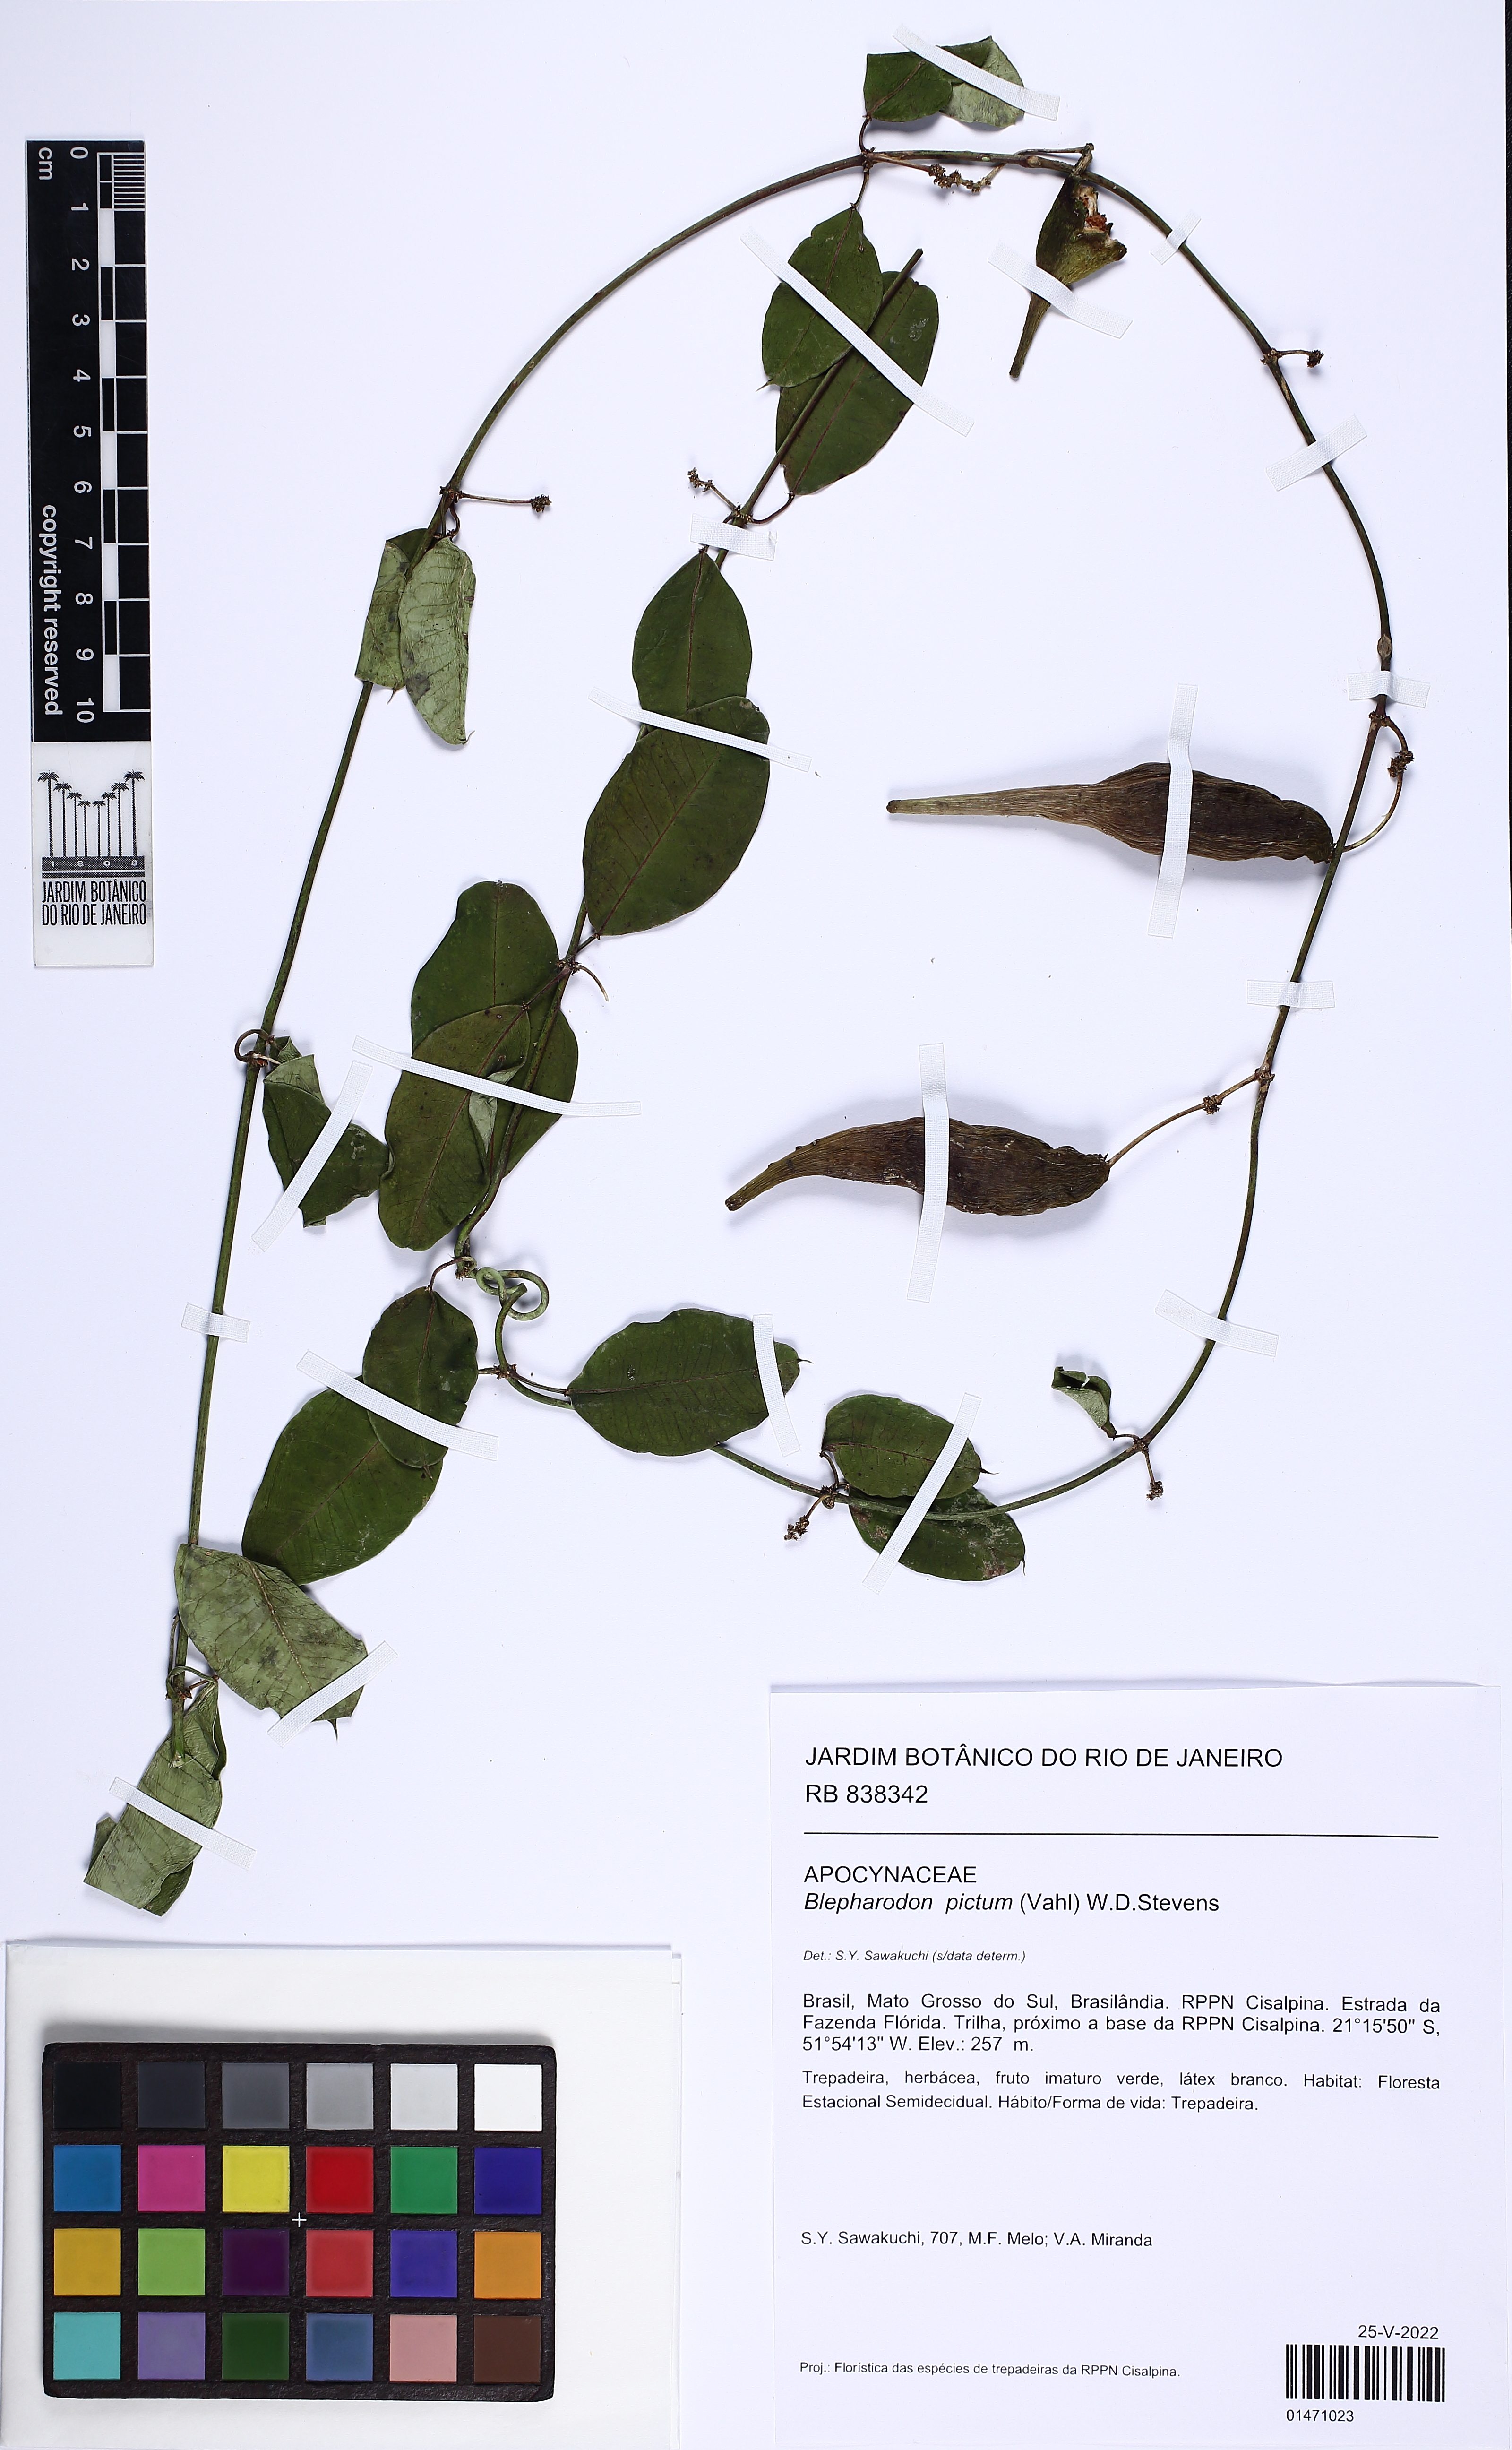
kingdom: Plantae
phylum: Tracheophyta
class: Magnoliopsida
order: Gentianales
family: Apocynaceae
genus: Blepharodon
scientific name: Blepharodon pictum
